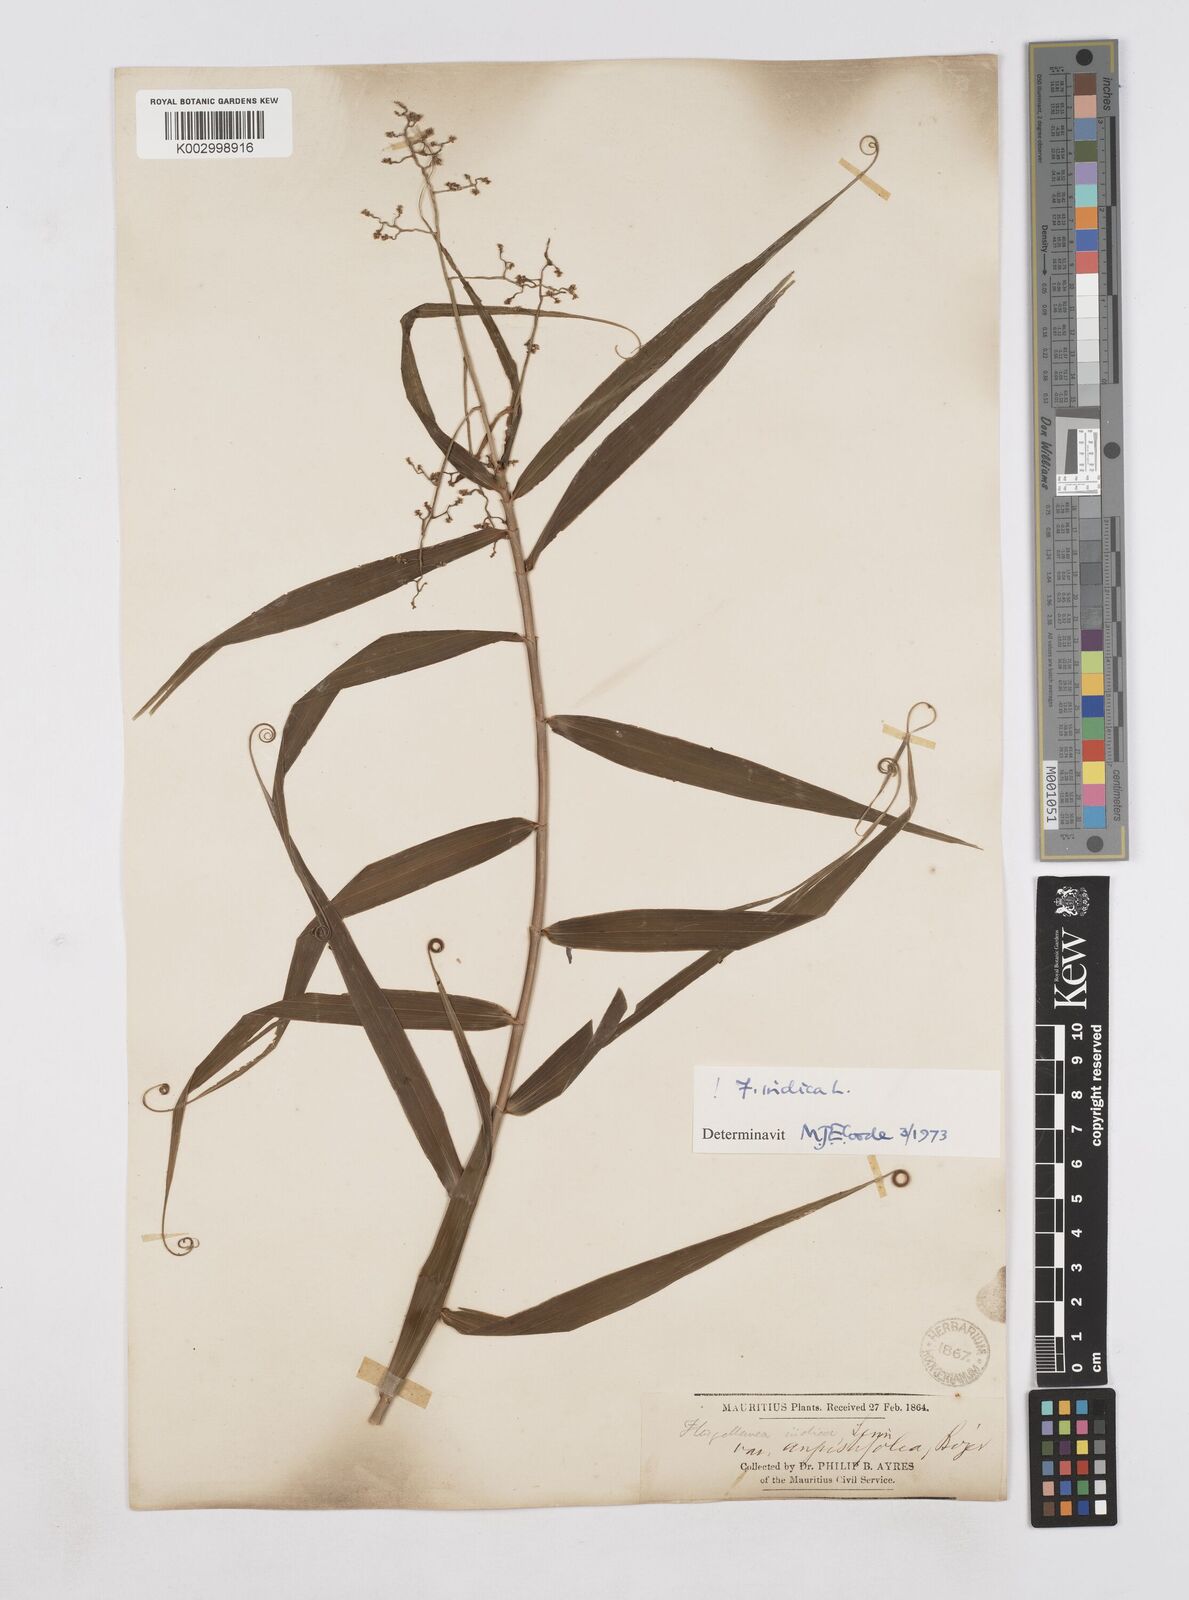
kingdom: Plantae
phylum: Tracheophyta
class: Liliopsida
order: Poales
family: Flagellariaceae
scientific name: Flagellariaceae
